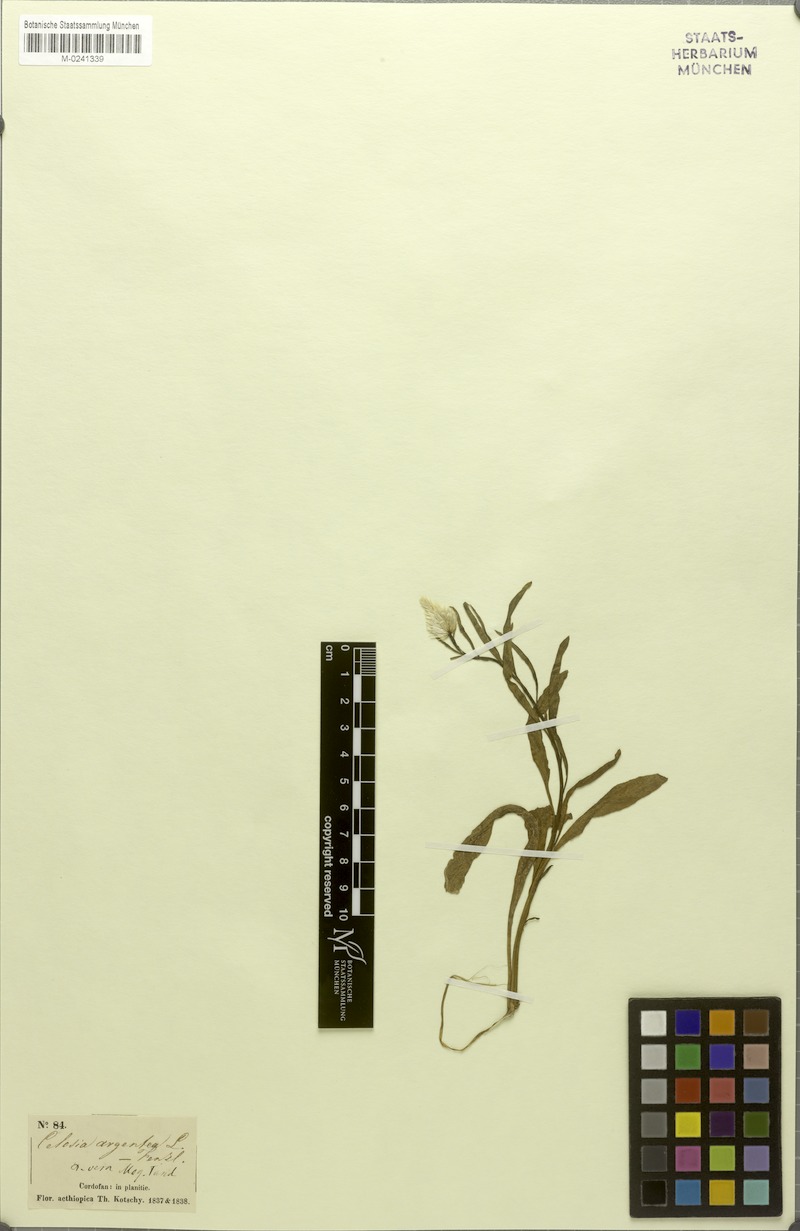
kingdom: Plantae
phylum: Tracheophyta
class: Magnoliopsida
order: Caryophyllales
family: Amaranthaceae
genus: Celosia
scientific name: Celosia argentea
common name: Feather cockscomb
